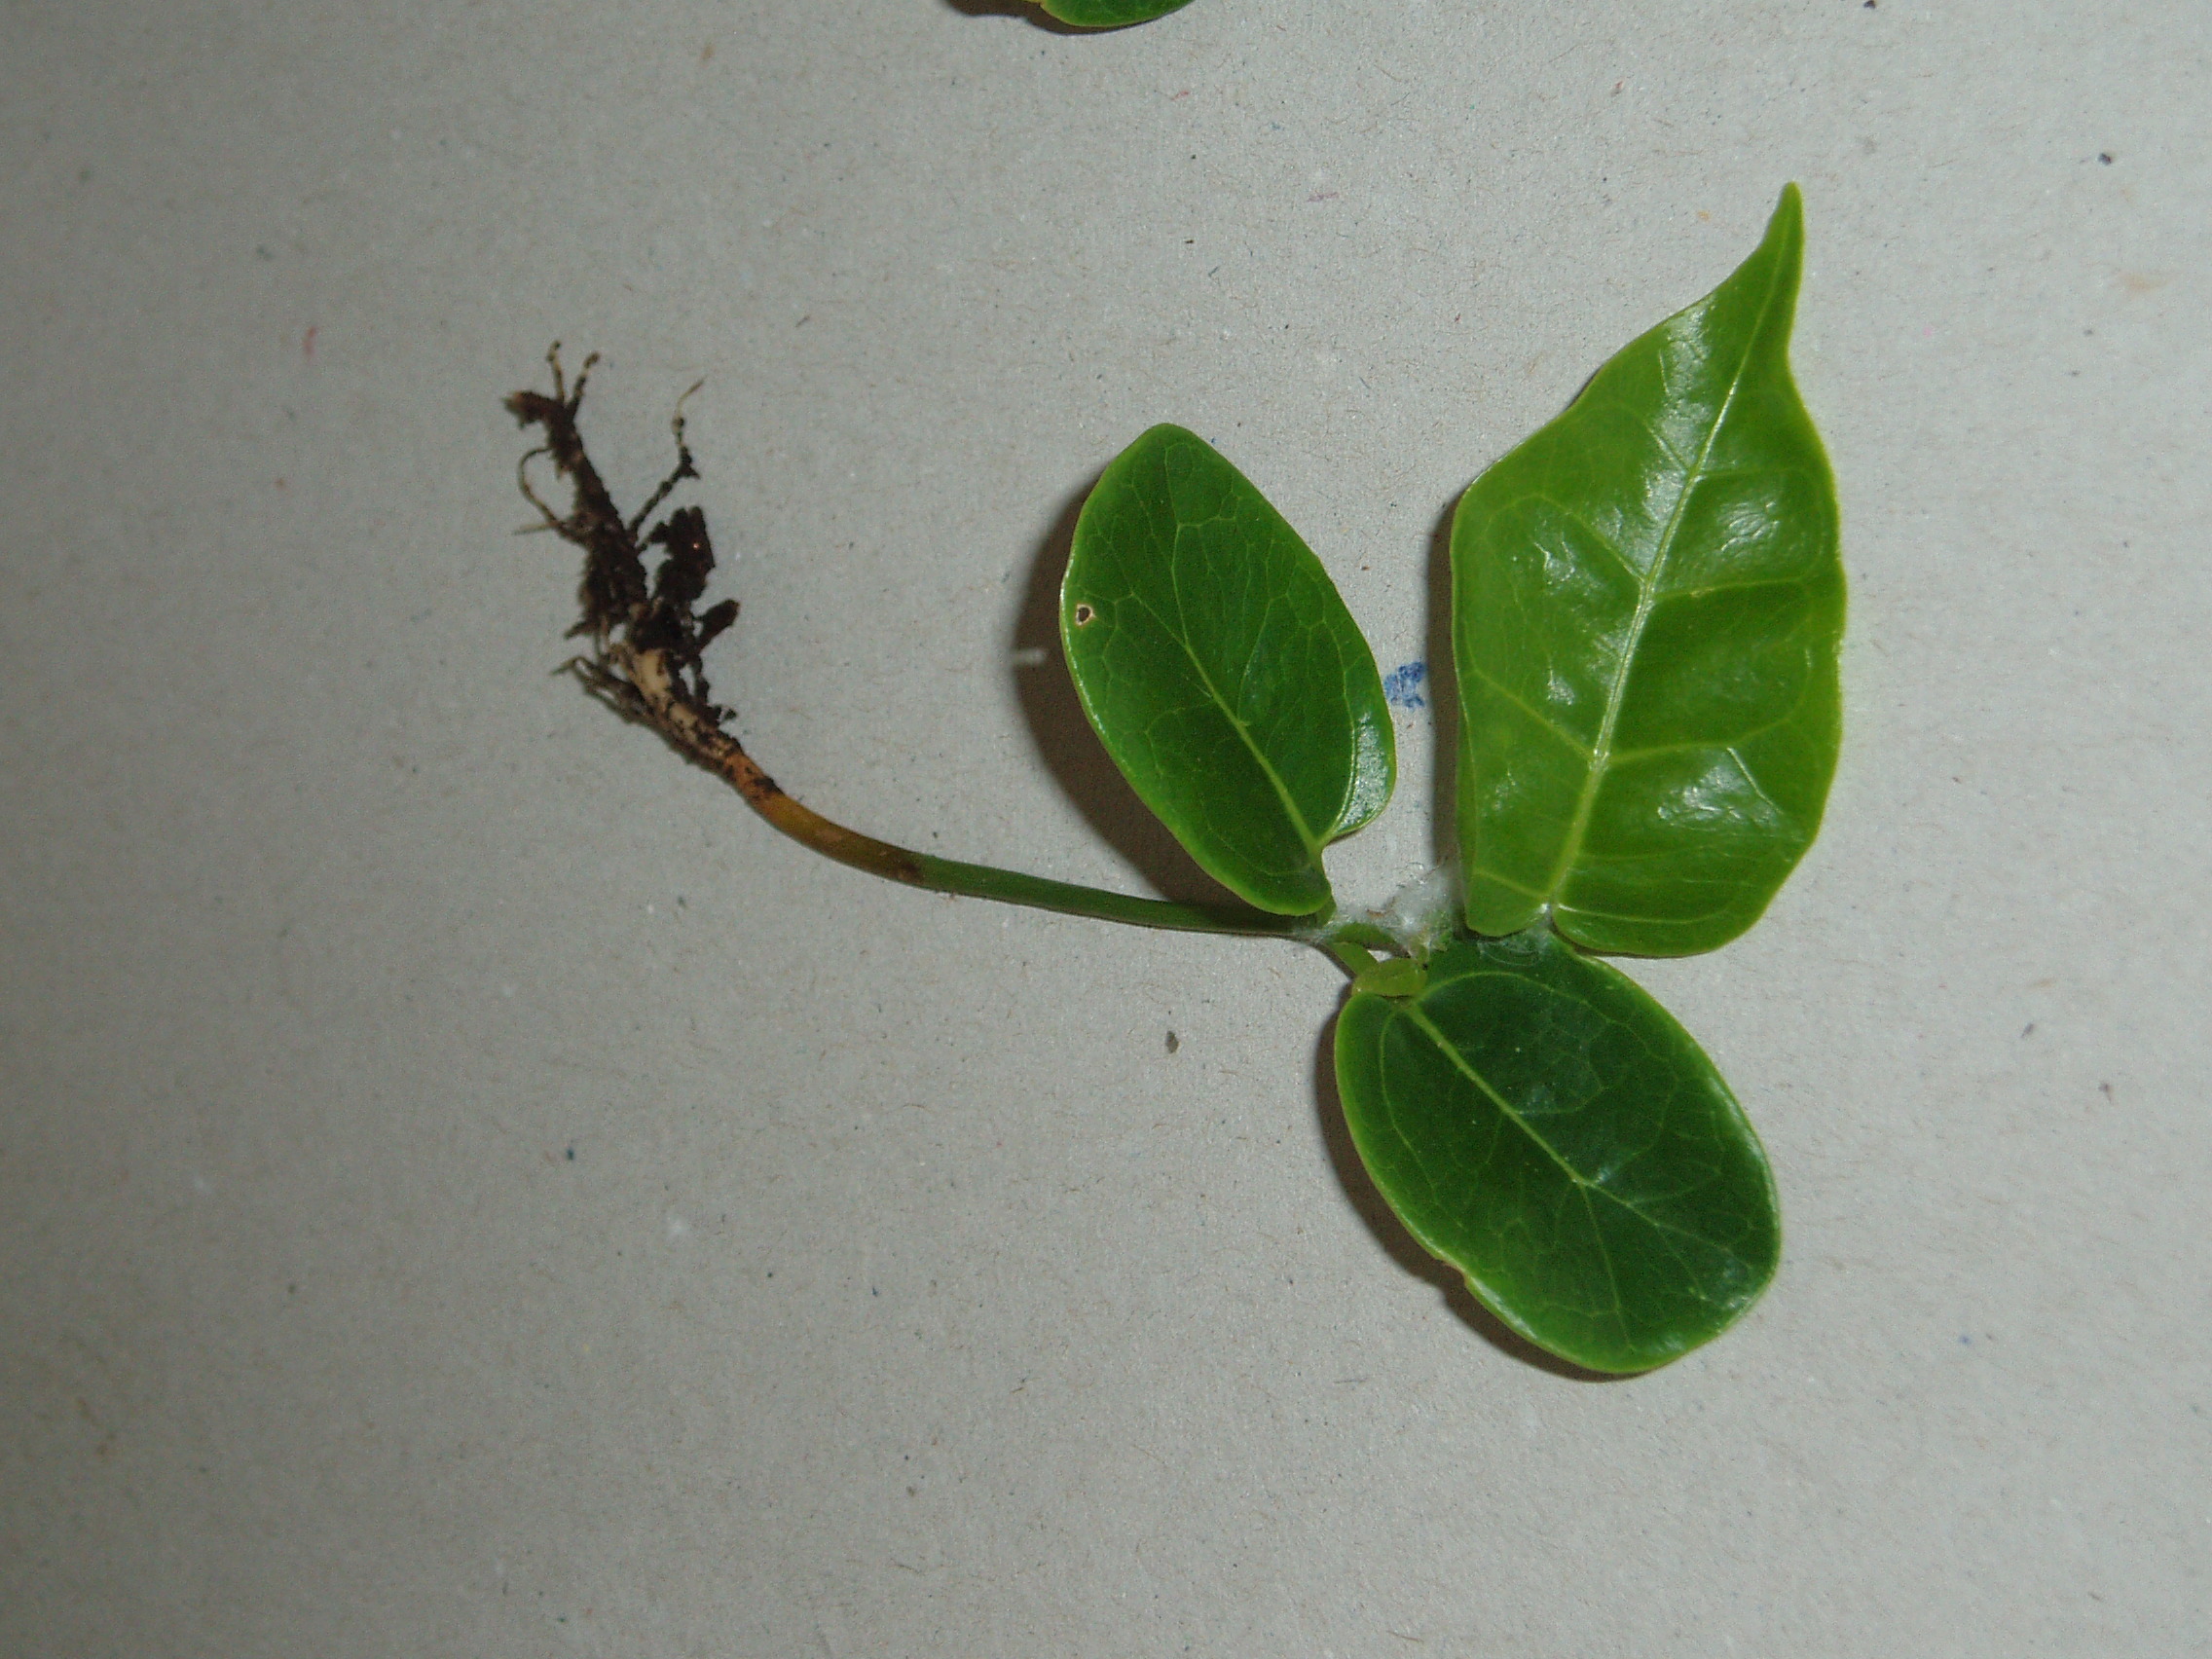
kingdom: Plantae
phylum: Tracheophyta
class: Magnoliopsida
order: Malvales
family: Malvaceae
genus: Brachychiton
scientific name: Brachychiton acerifolius
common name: Illawarra flame tree
